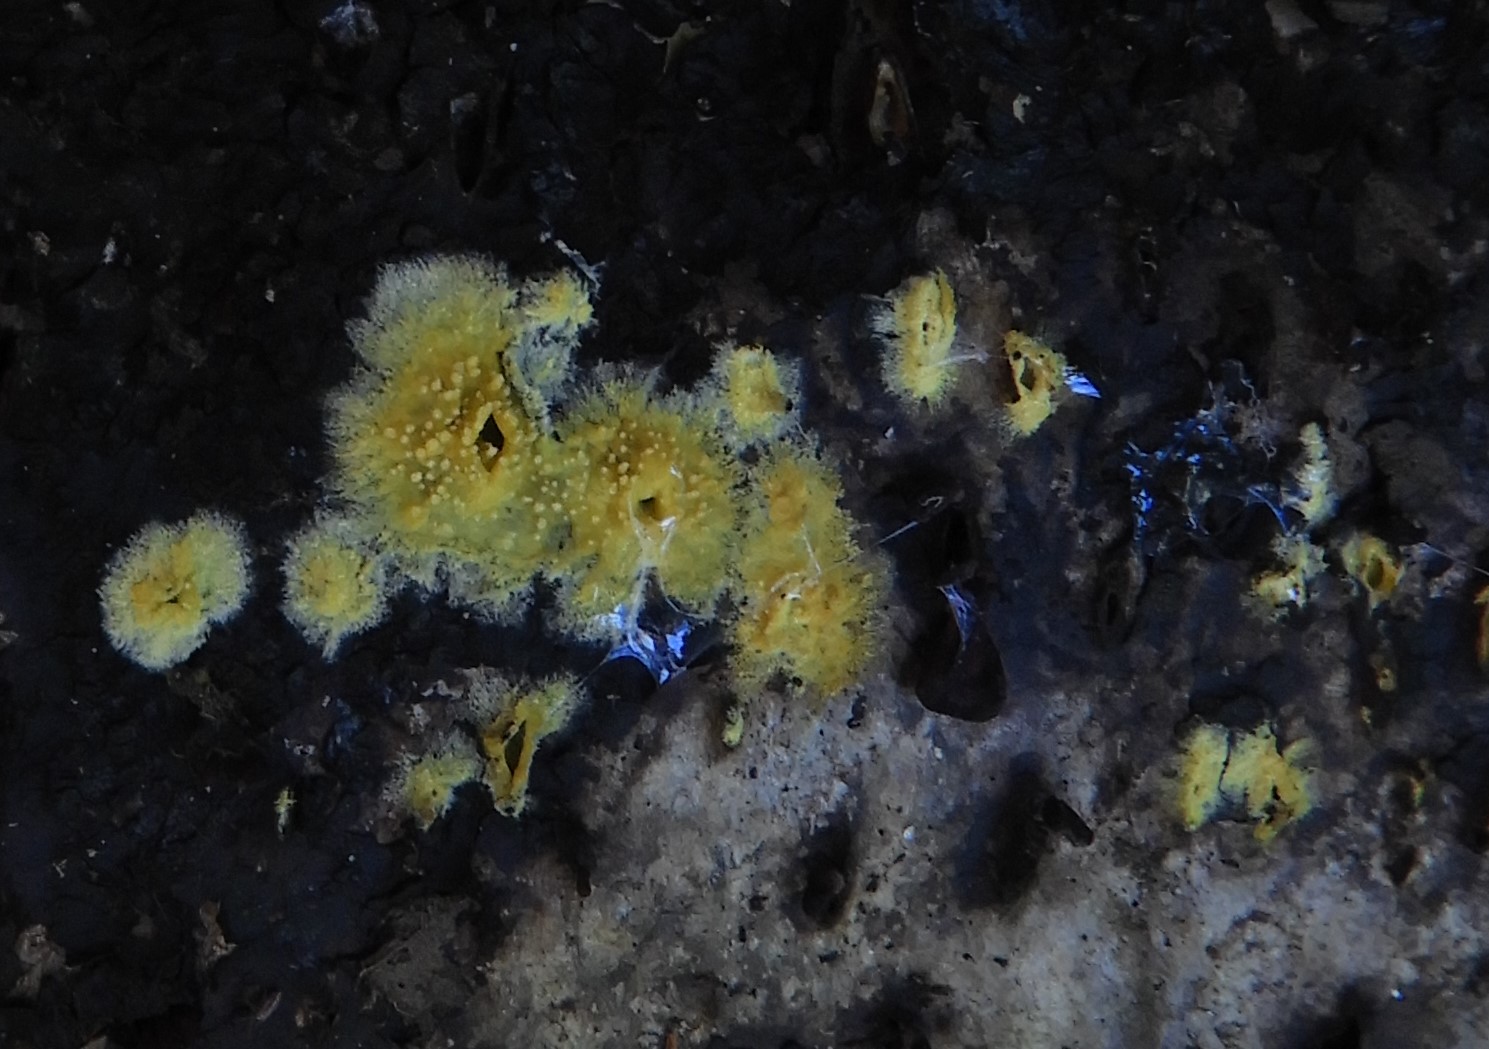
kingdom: Fungi
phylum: Basidiomycota
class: Agaricomycetes
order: Polyporales
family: Meruliaceae
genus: Phlebiodontia
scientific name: Phlebiodontia subochracea
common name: svovl-åresvamp
